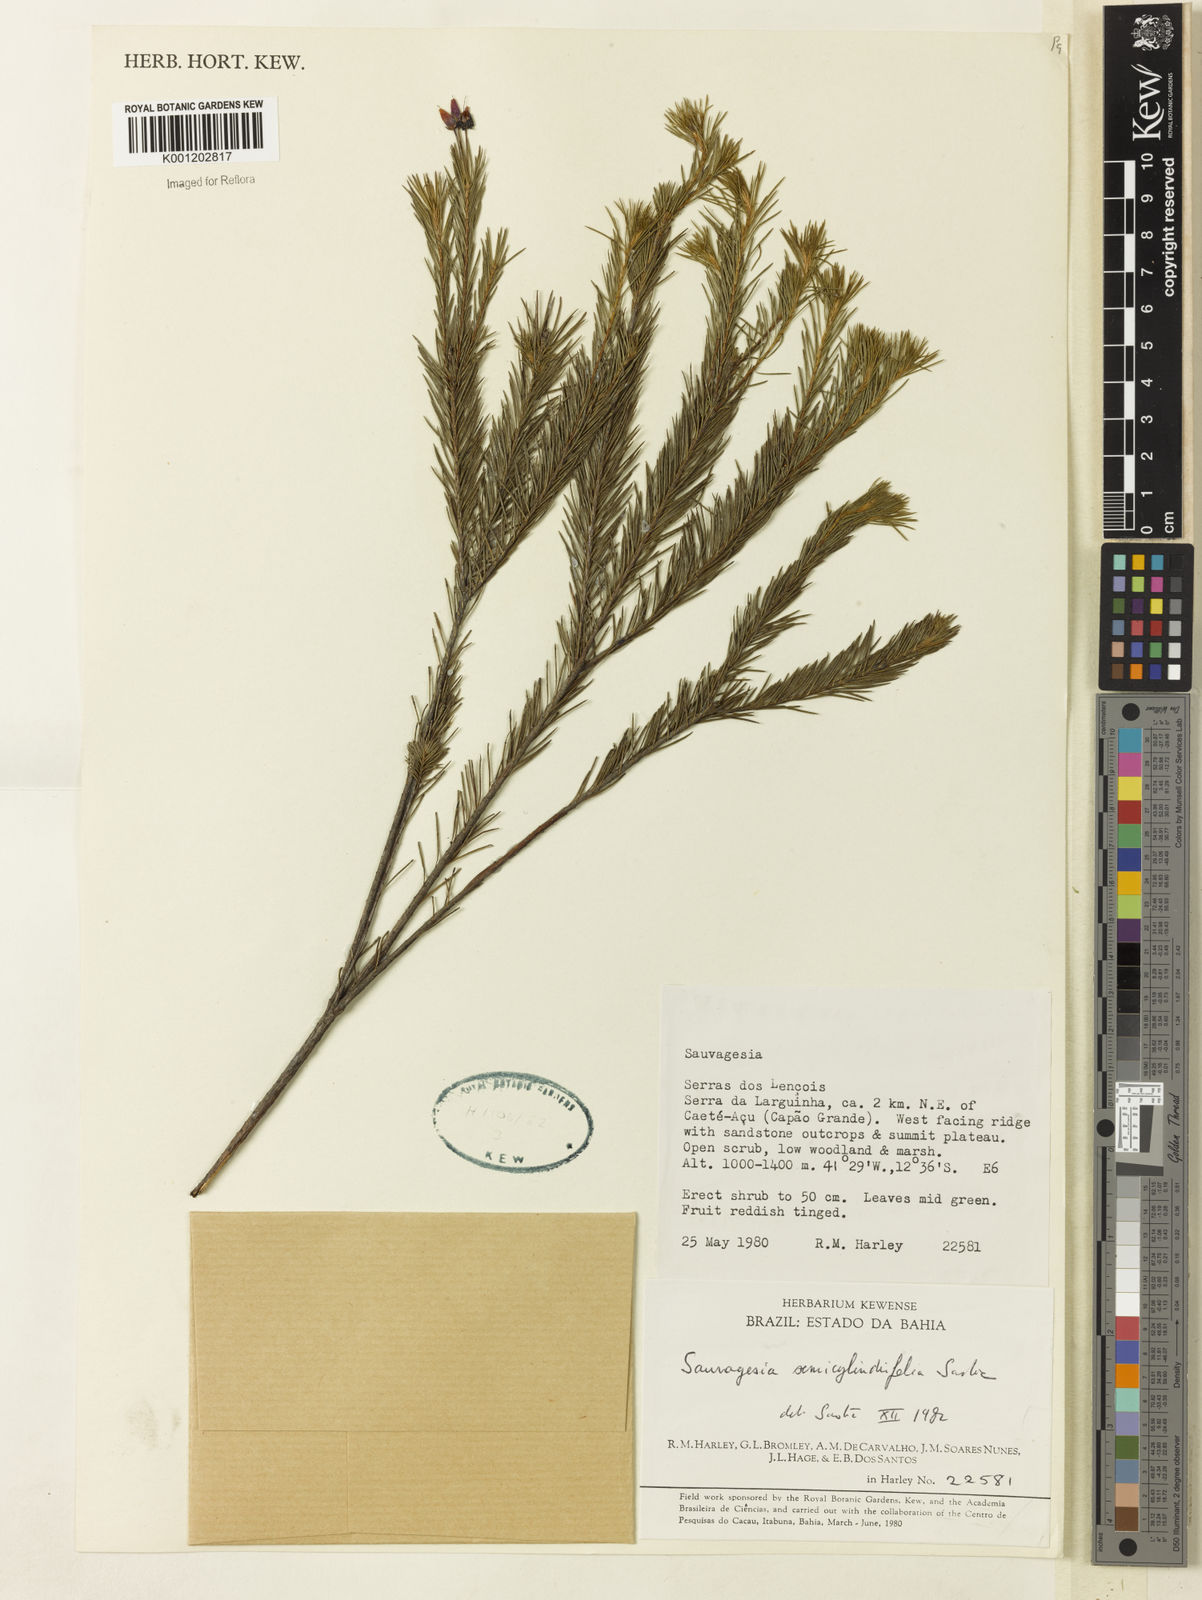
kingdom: Plantae
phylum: Tracheophyta
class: Magnoliopsida
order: Malpighiales
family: Ochnaceae
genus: Sauvagesia
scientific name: Sauvagesia semicylindrifolia
